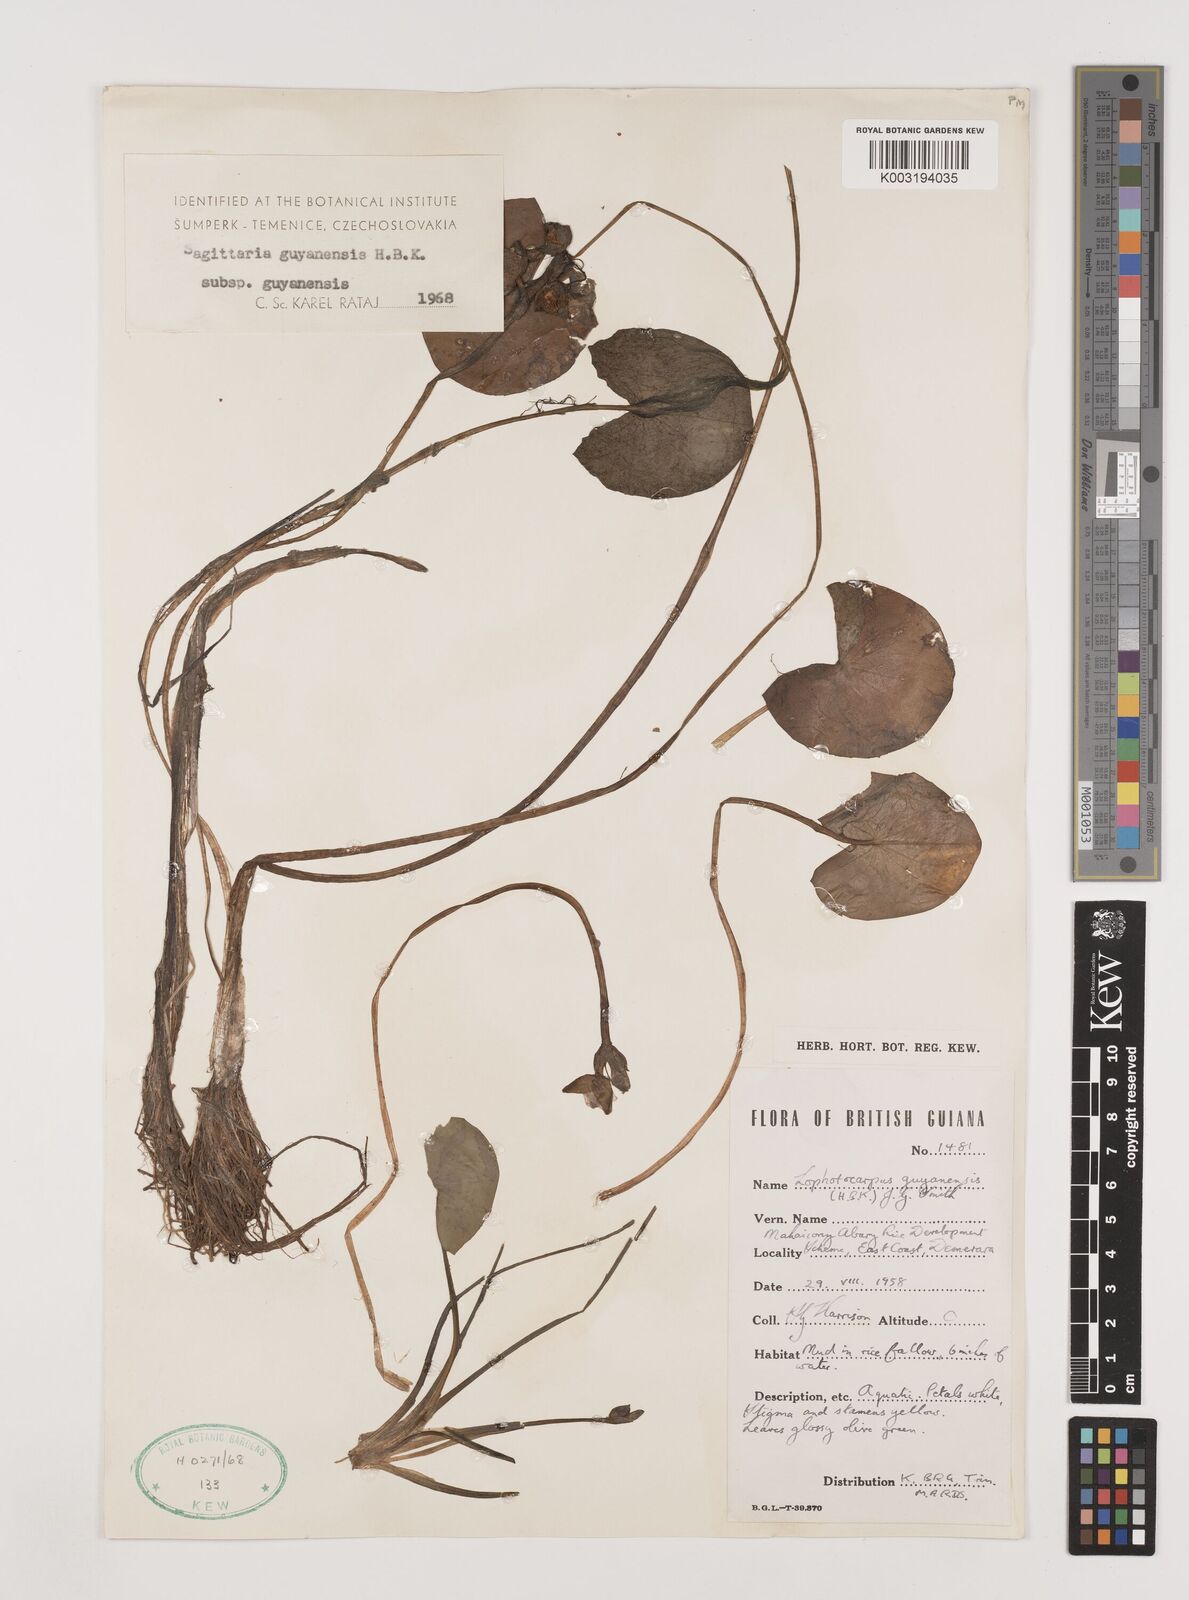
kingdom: Plantae
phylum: Tracheophyta
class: Liliopsida
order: Alismatales
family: Alismataceae
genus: Sagittaria
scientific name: Sagittaria guayanensis
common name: Guyanese arrowhead
